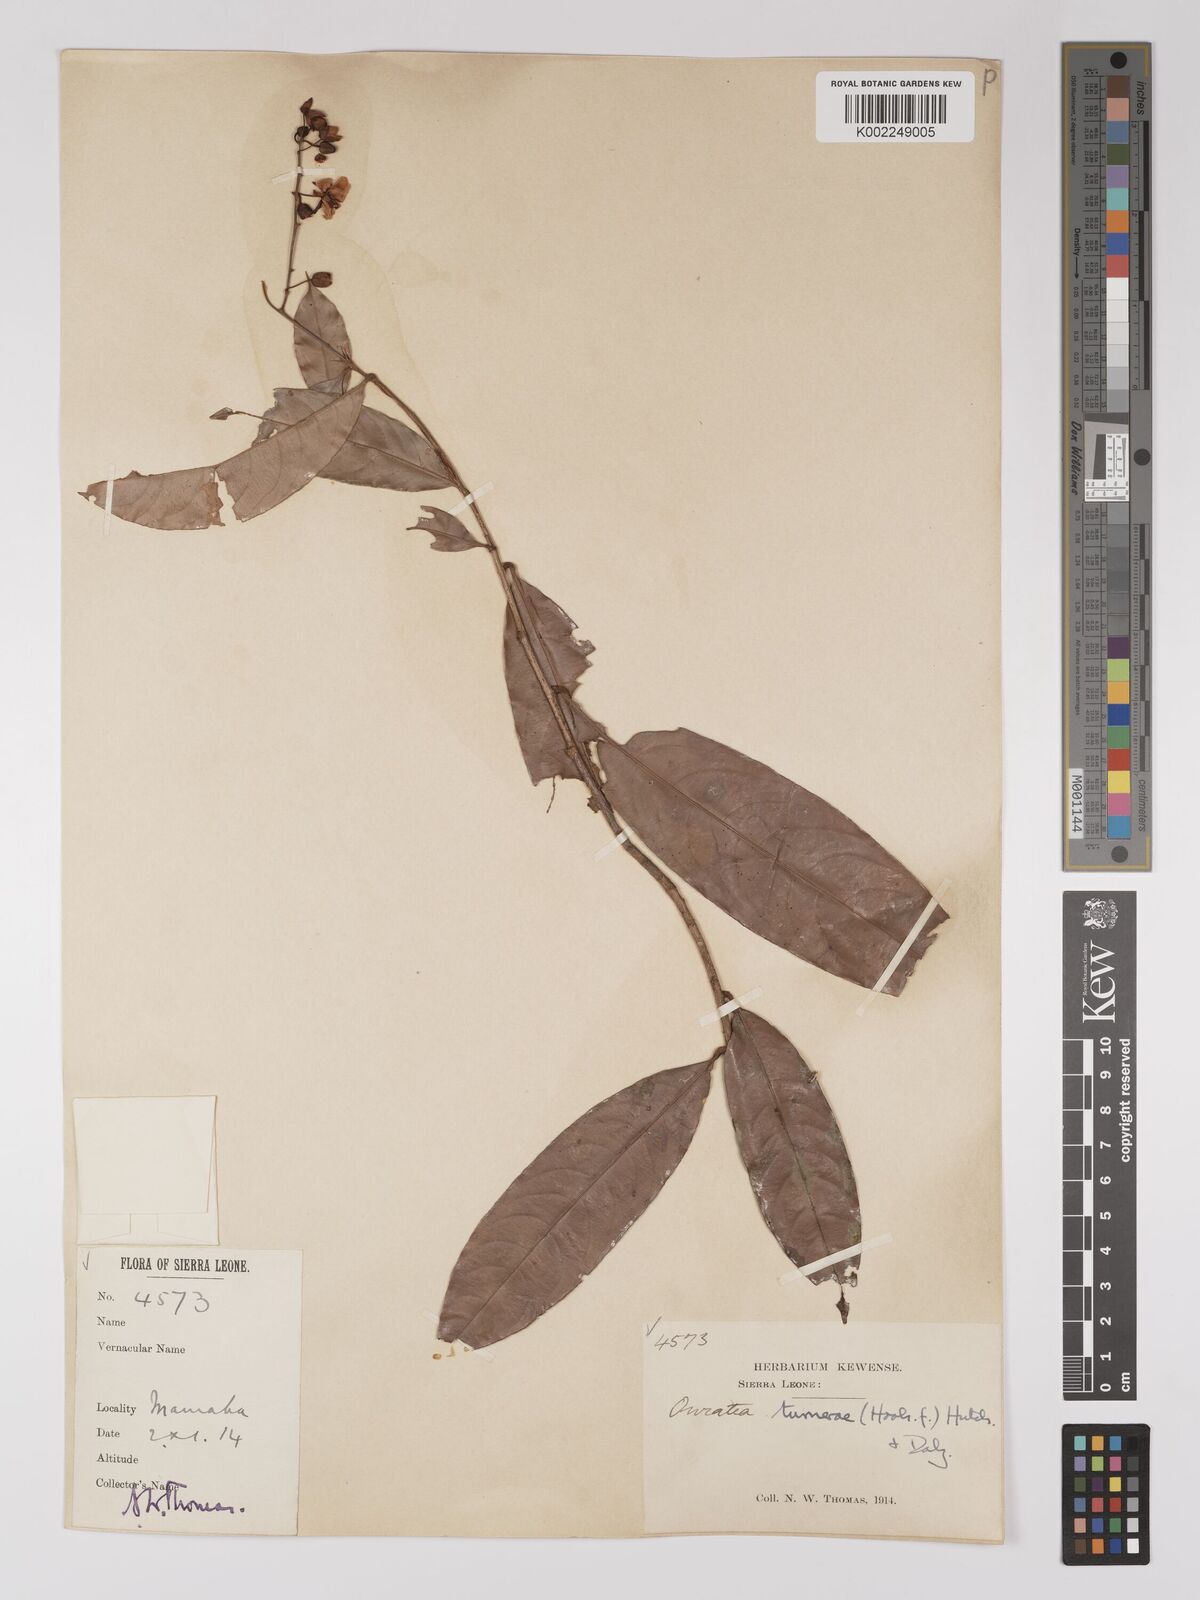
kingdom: Plantae
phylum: Tracheophyta
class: Magnoliopsida
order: Malpighiales
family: Ochnaceae
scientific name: Ochnaceae
